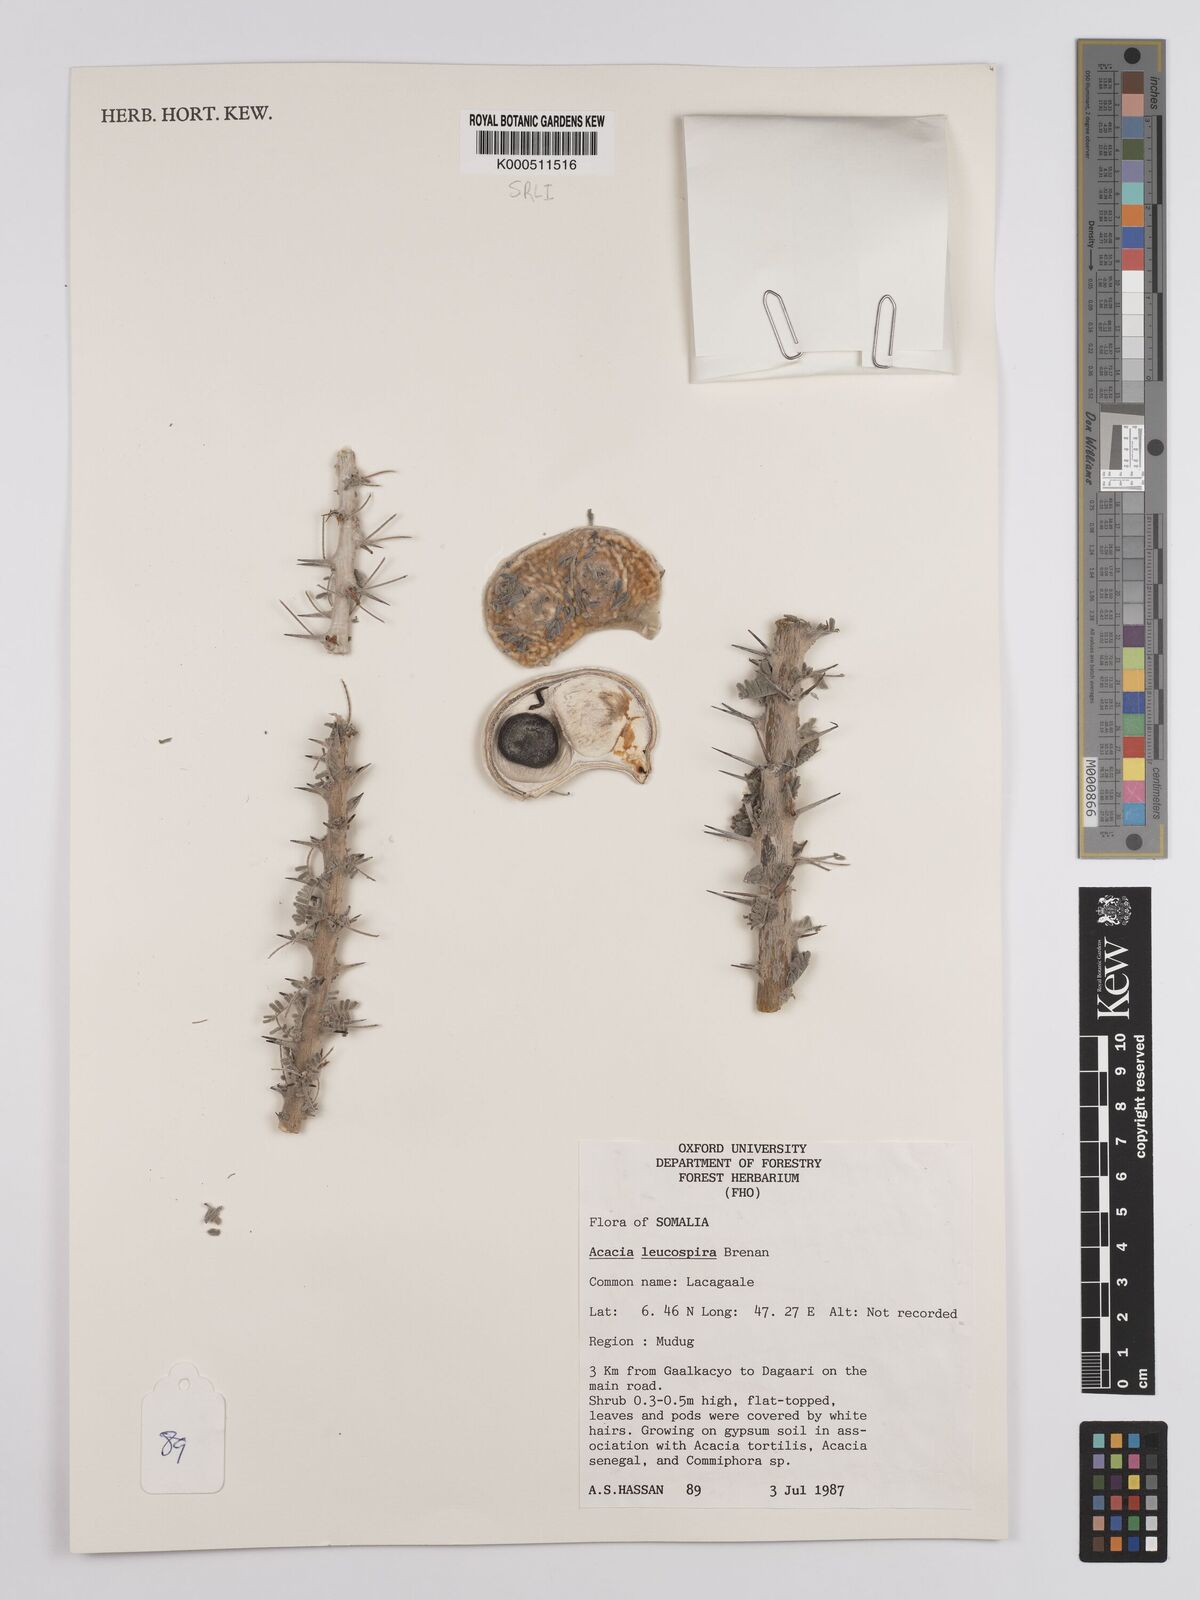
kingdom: Plantae
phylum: Tracheophyta
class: Magnoliopsida
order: Fabales
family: Fabaceae
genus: Vachellia
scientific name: Vachellia leucospira
